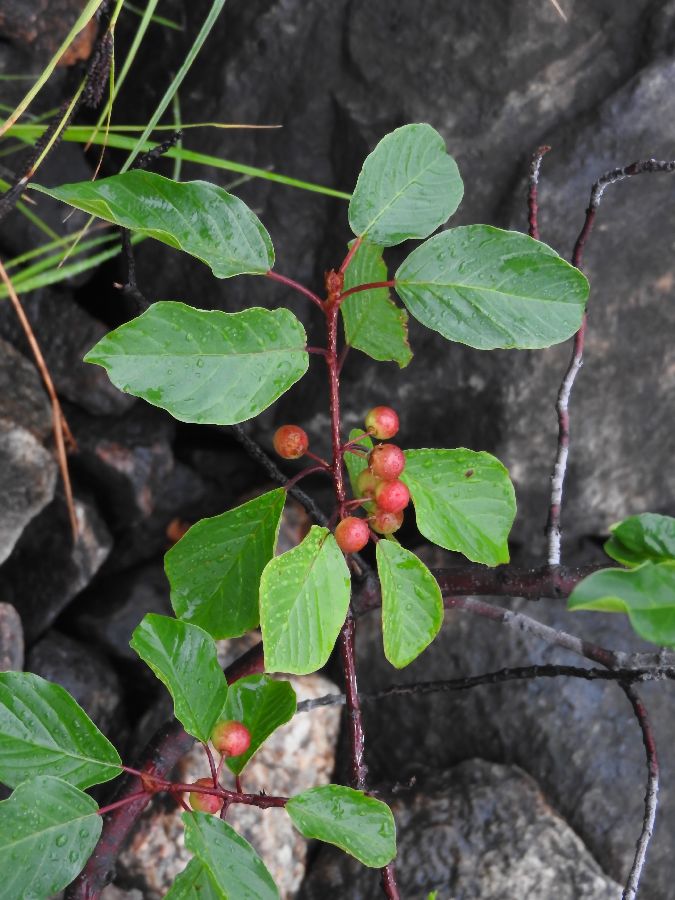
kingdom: Plantae
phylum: Tracheophyta
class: Magnoliopsida
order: Rosales
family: Rhamnaceae
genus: Frangula
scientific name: Frangula alnus
